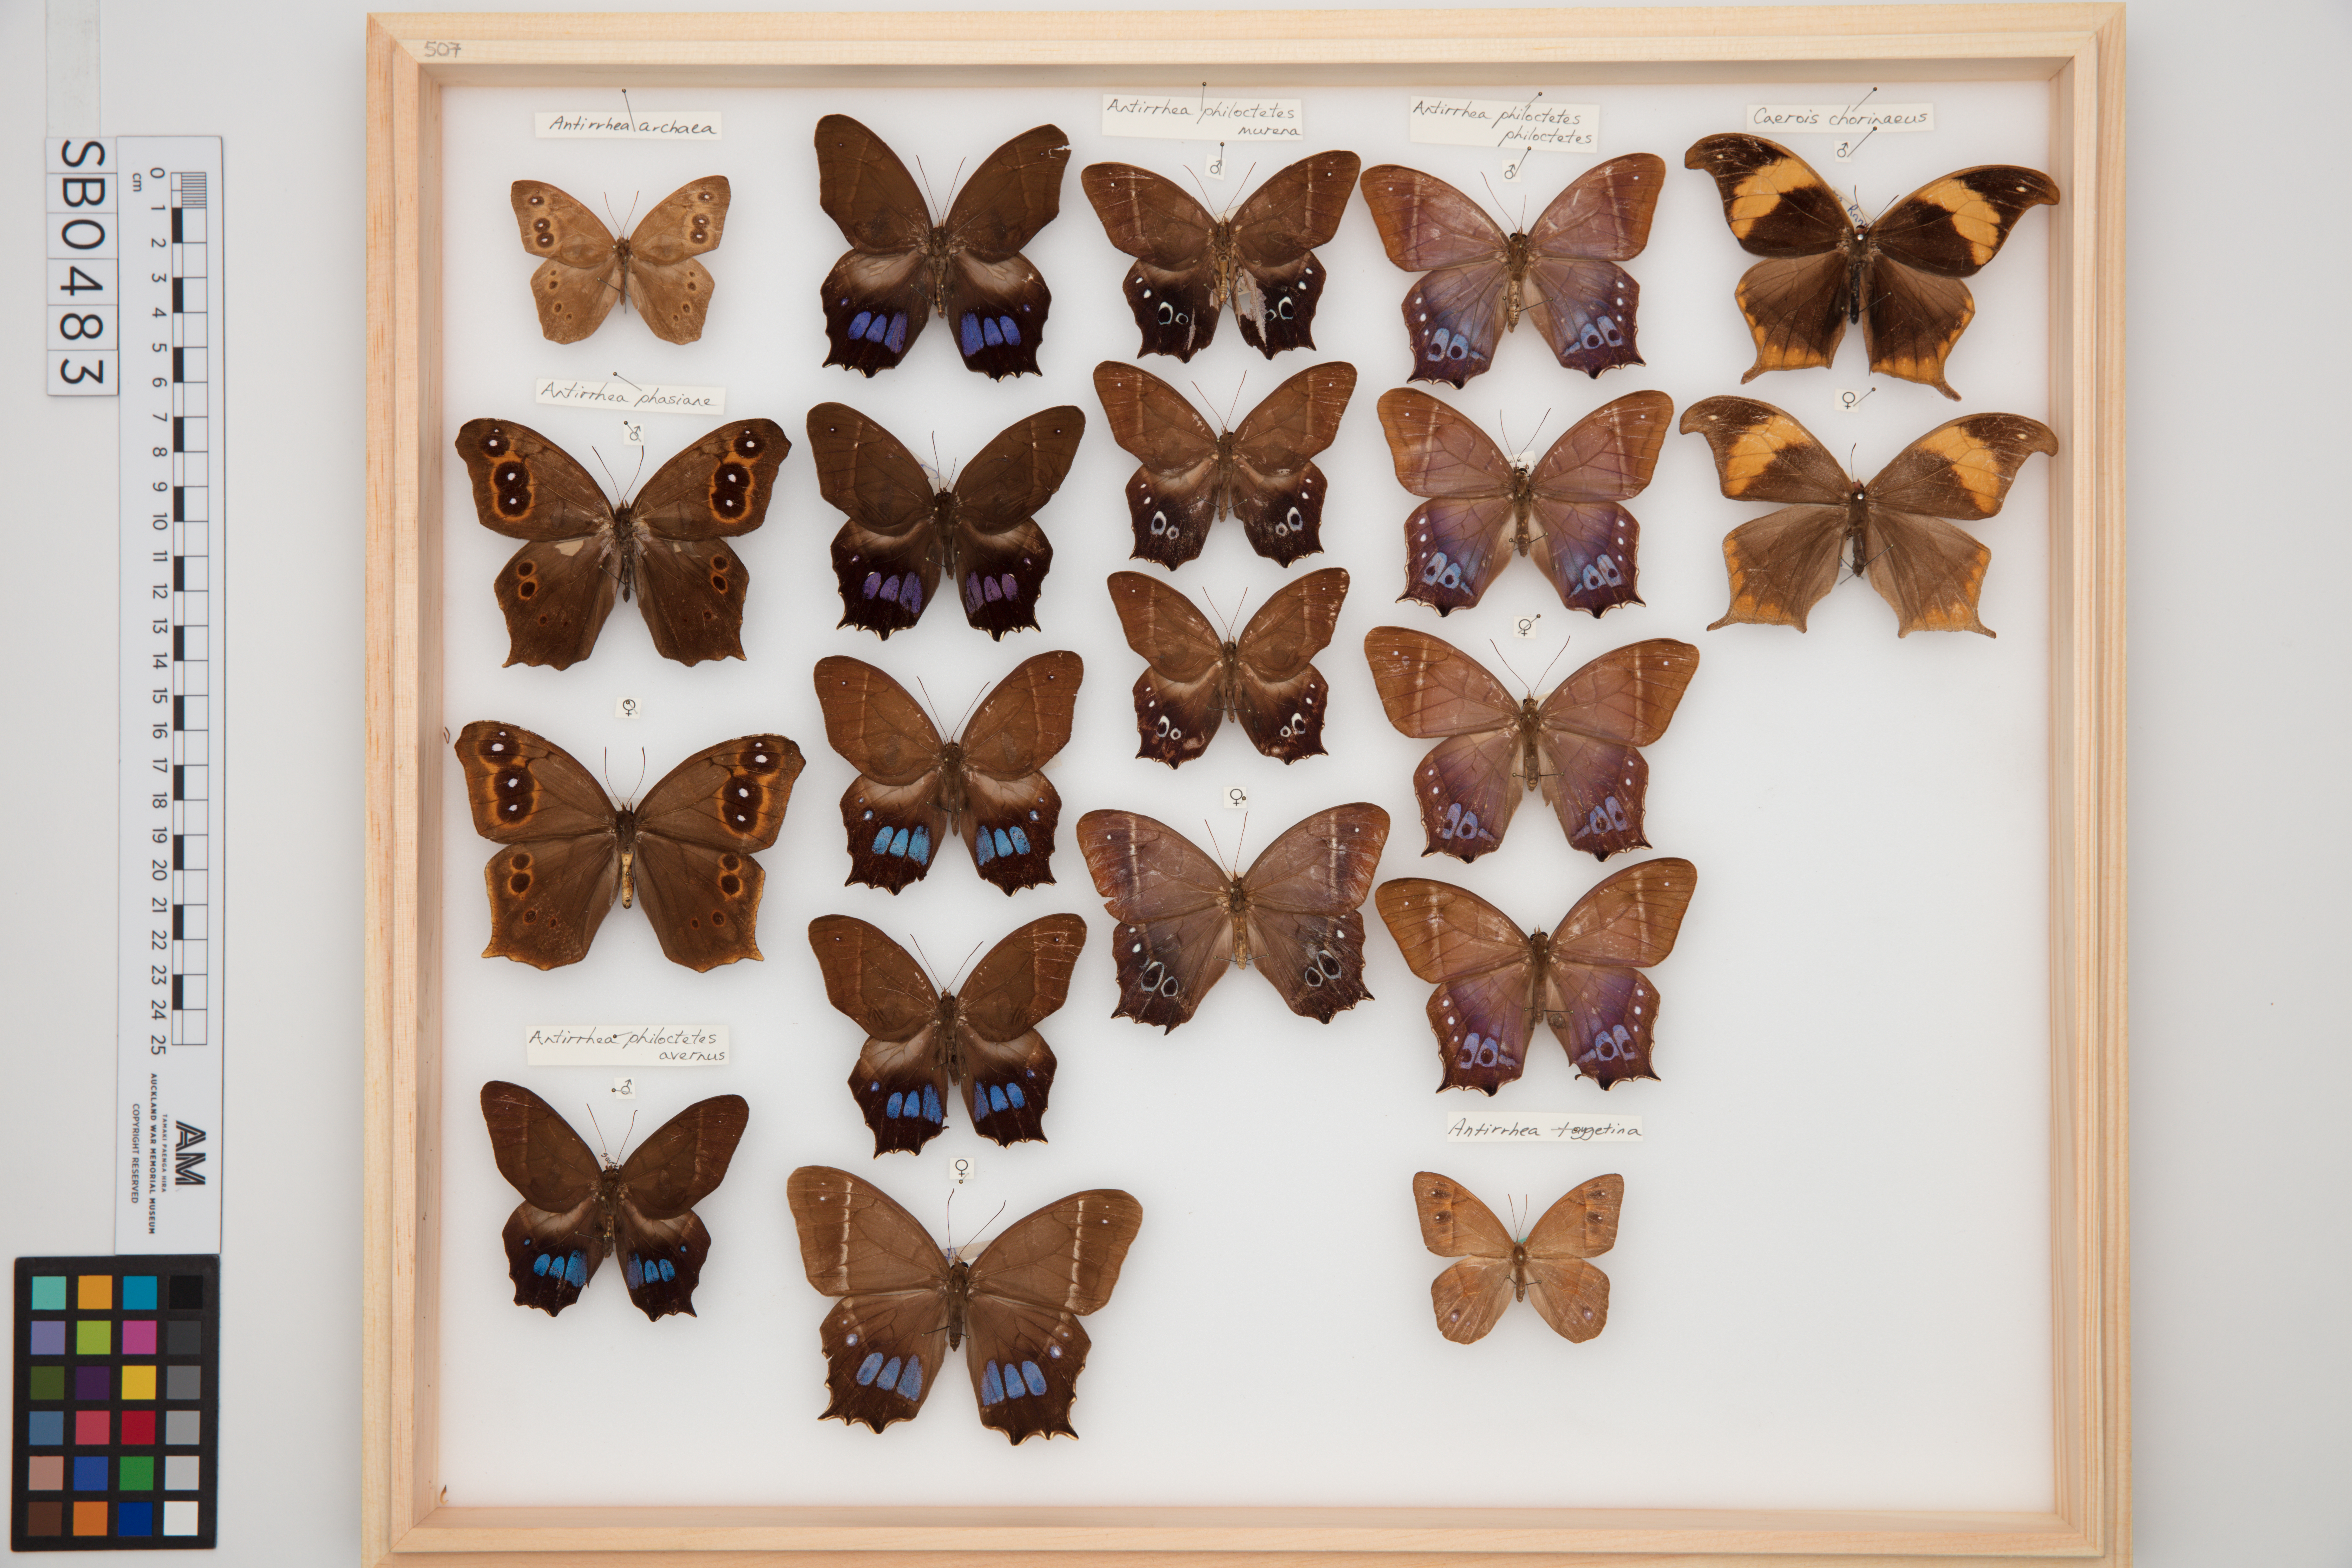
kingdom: Animalia
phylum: Arthropoda
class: Insecta
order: Lepidoptera
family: Nymphalidae
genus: Antirrhea
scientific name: Antirrhea philoctetes
